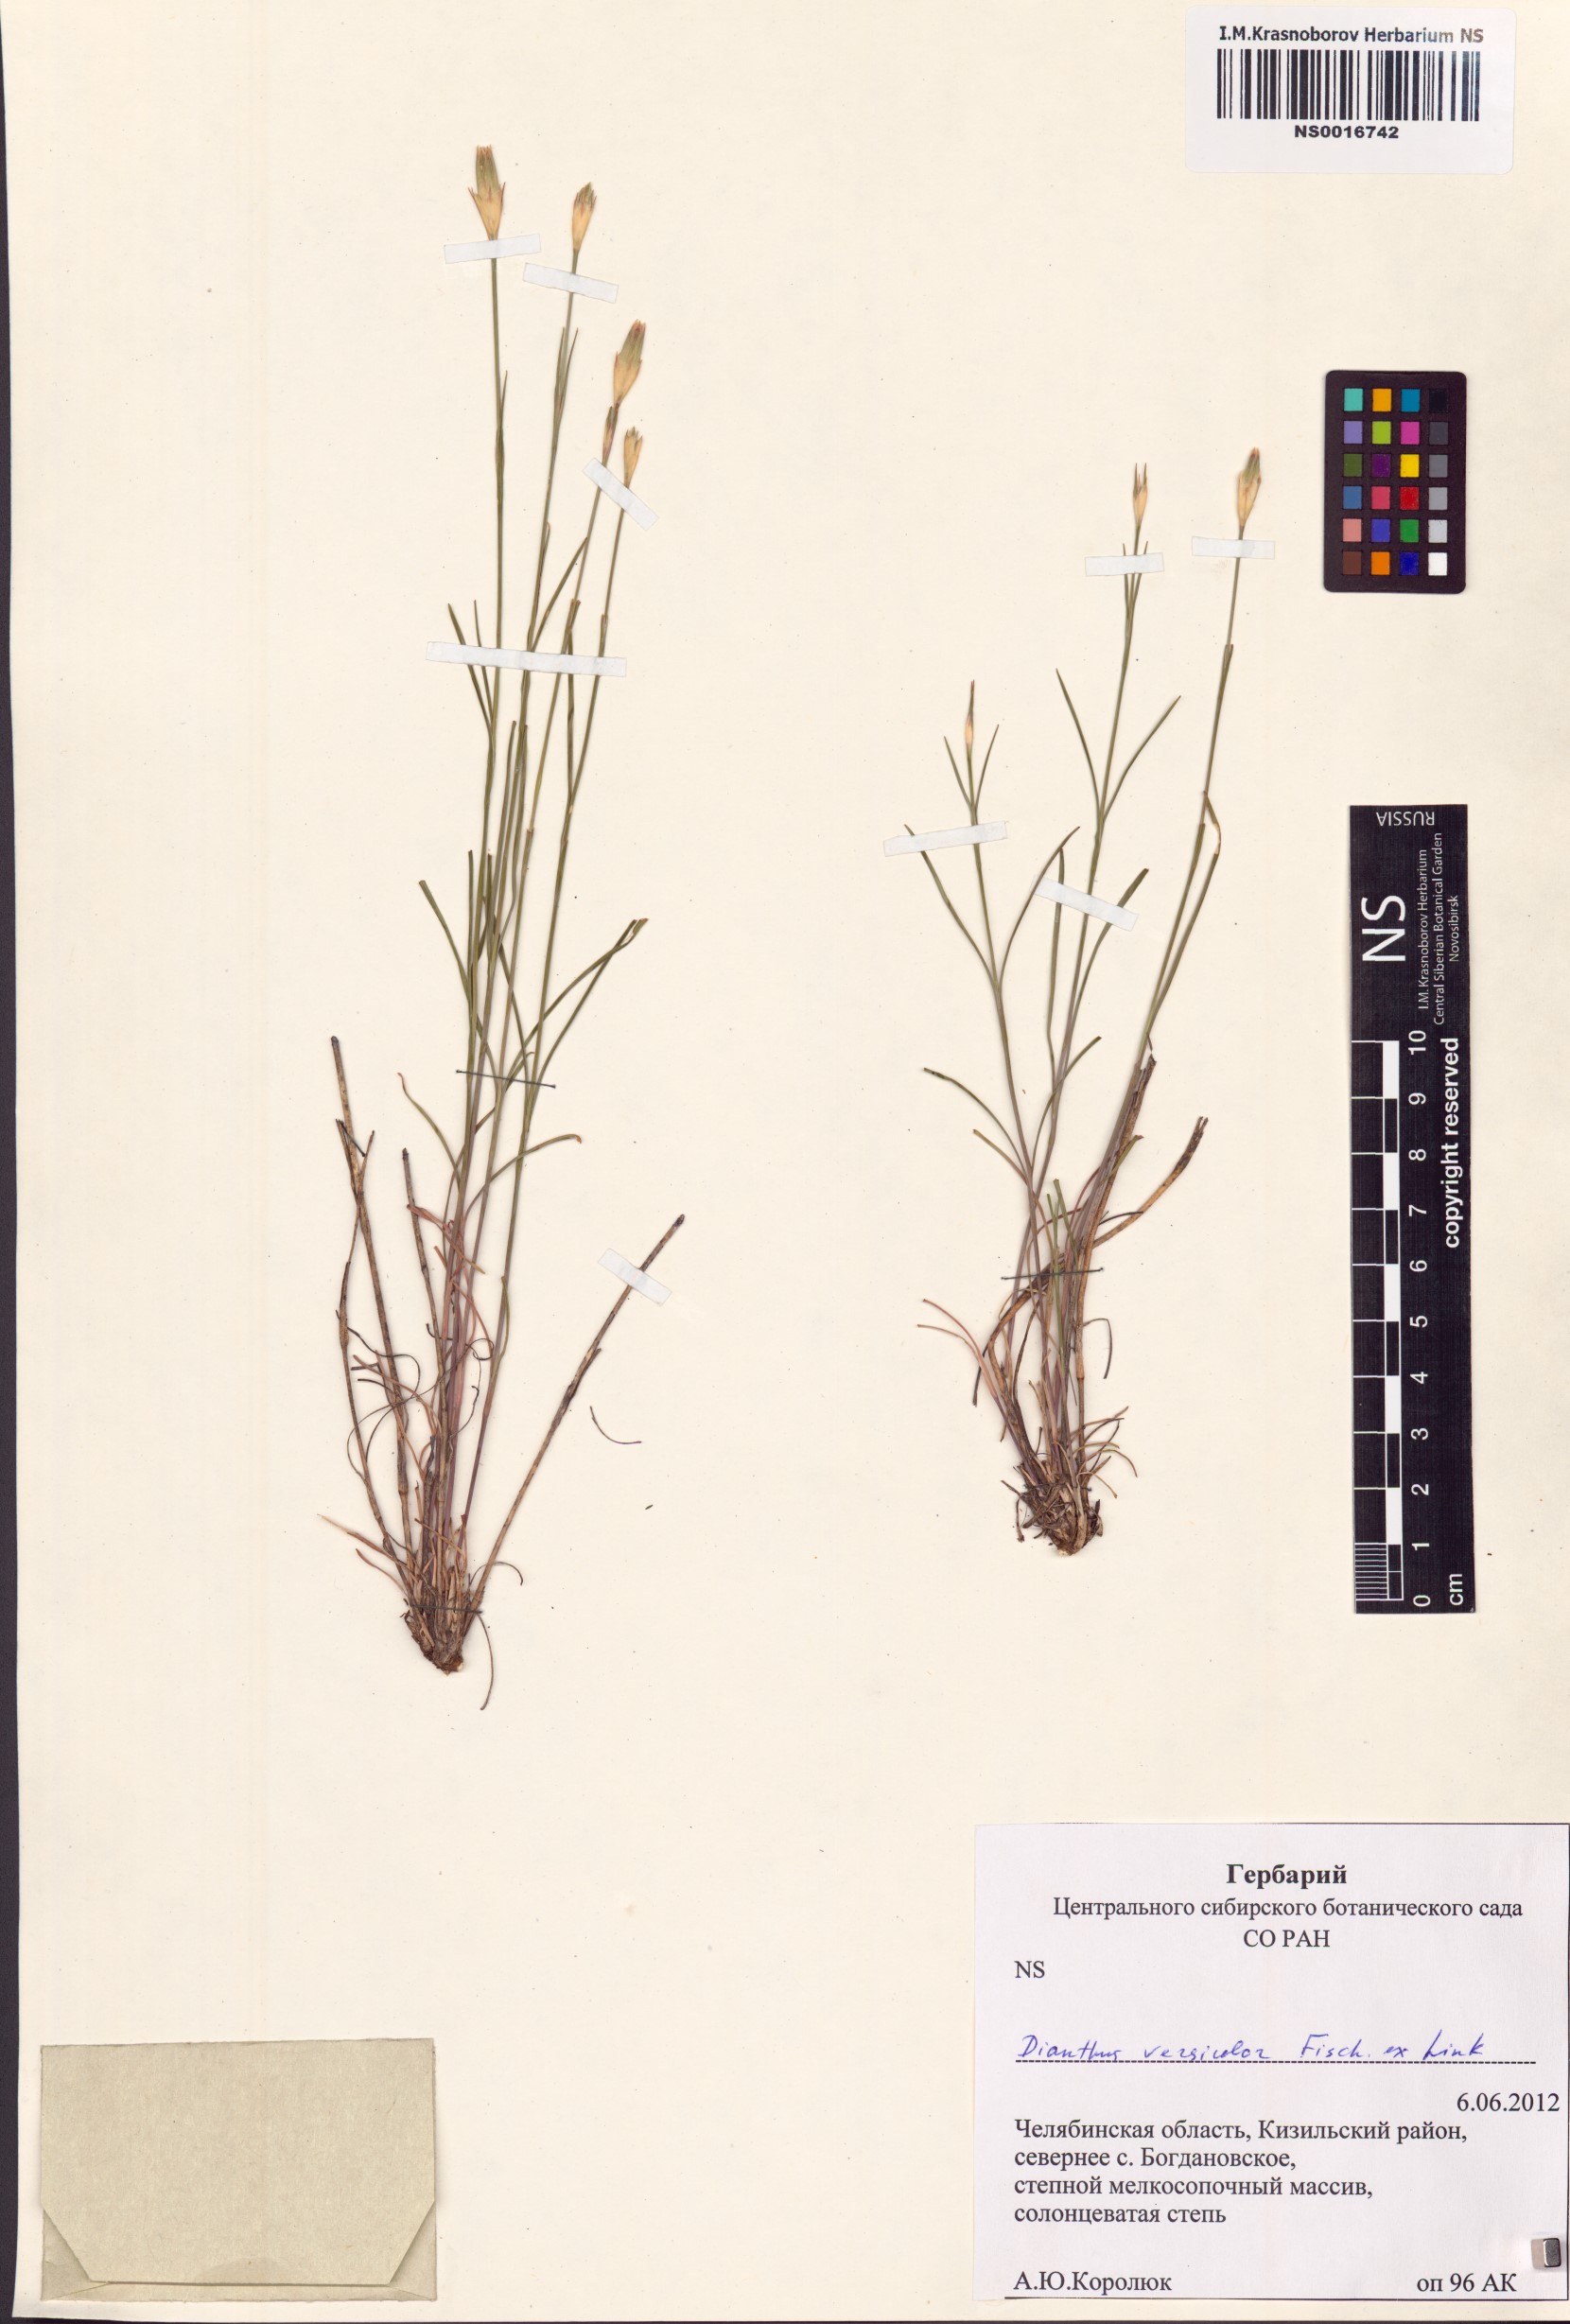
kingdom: Plantae
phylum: Tracheophyta
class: Magnoliopsida
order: Caryophyllales
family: Caryophyllaceae
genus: Dianthus
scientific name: Dianthus chinensis
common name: Rainbow pink
